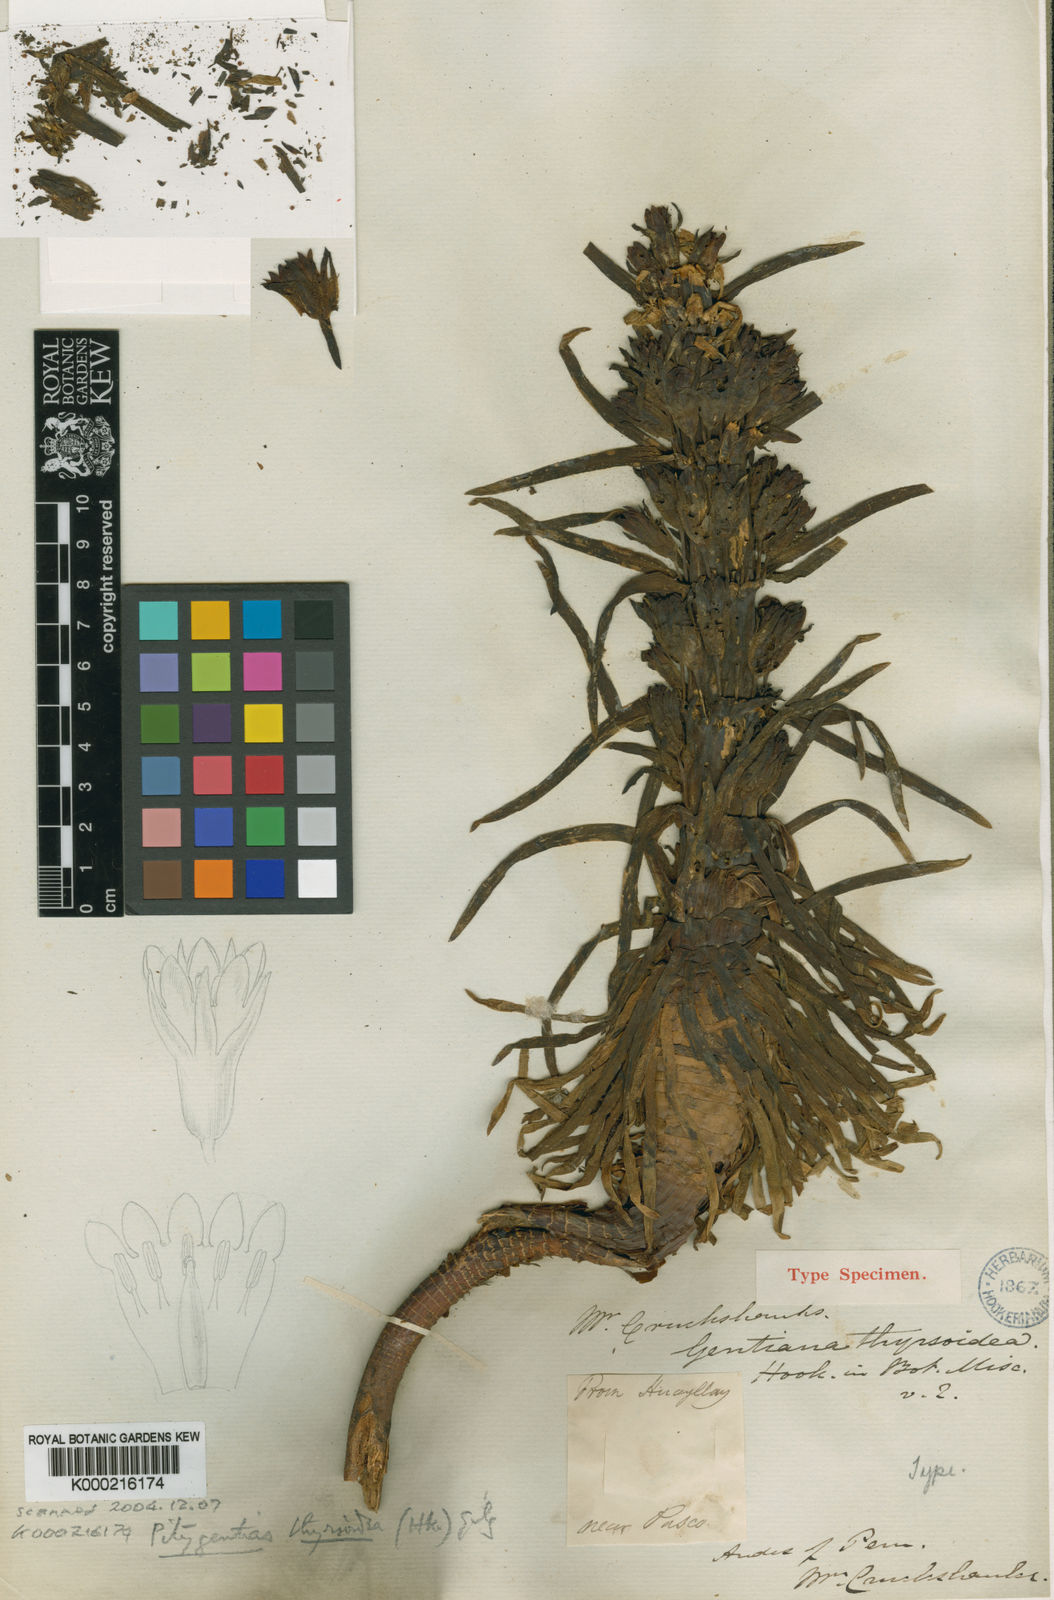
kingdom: Plantae
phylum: Tracheophyta
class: Magnoliopsida
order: Gentianales
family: Gentianaceae
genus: Gentianella
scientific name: Gentianella thyrsoidea
